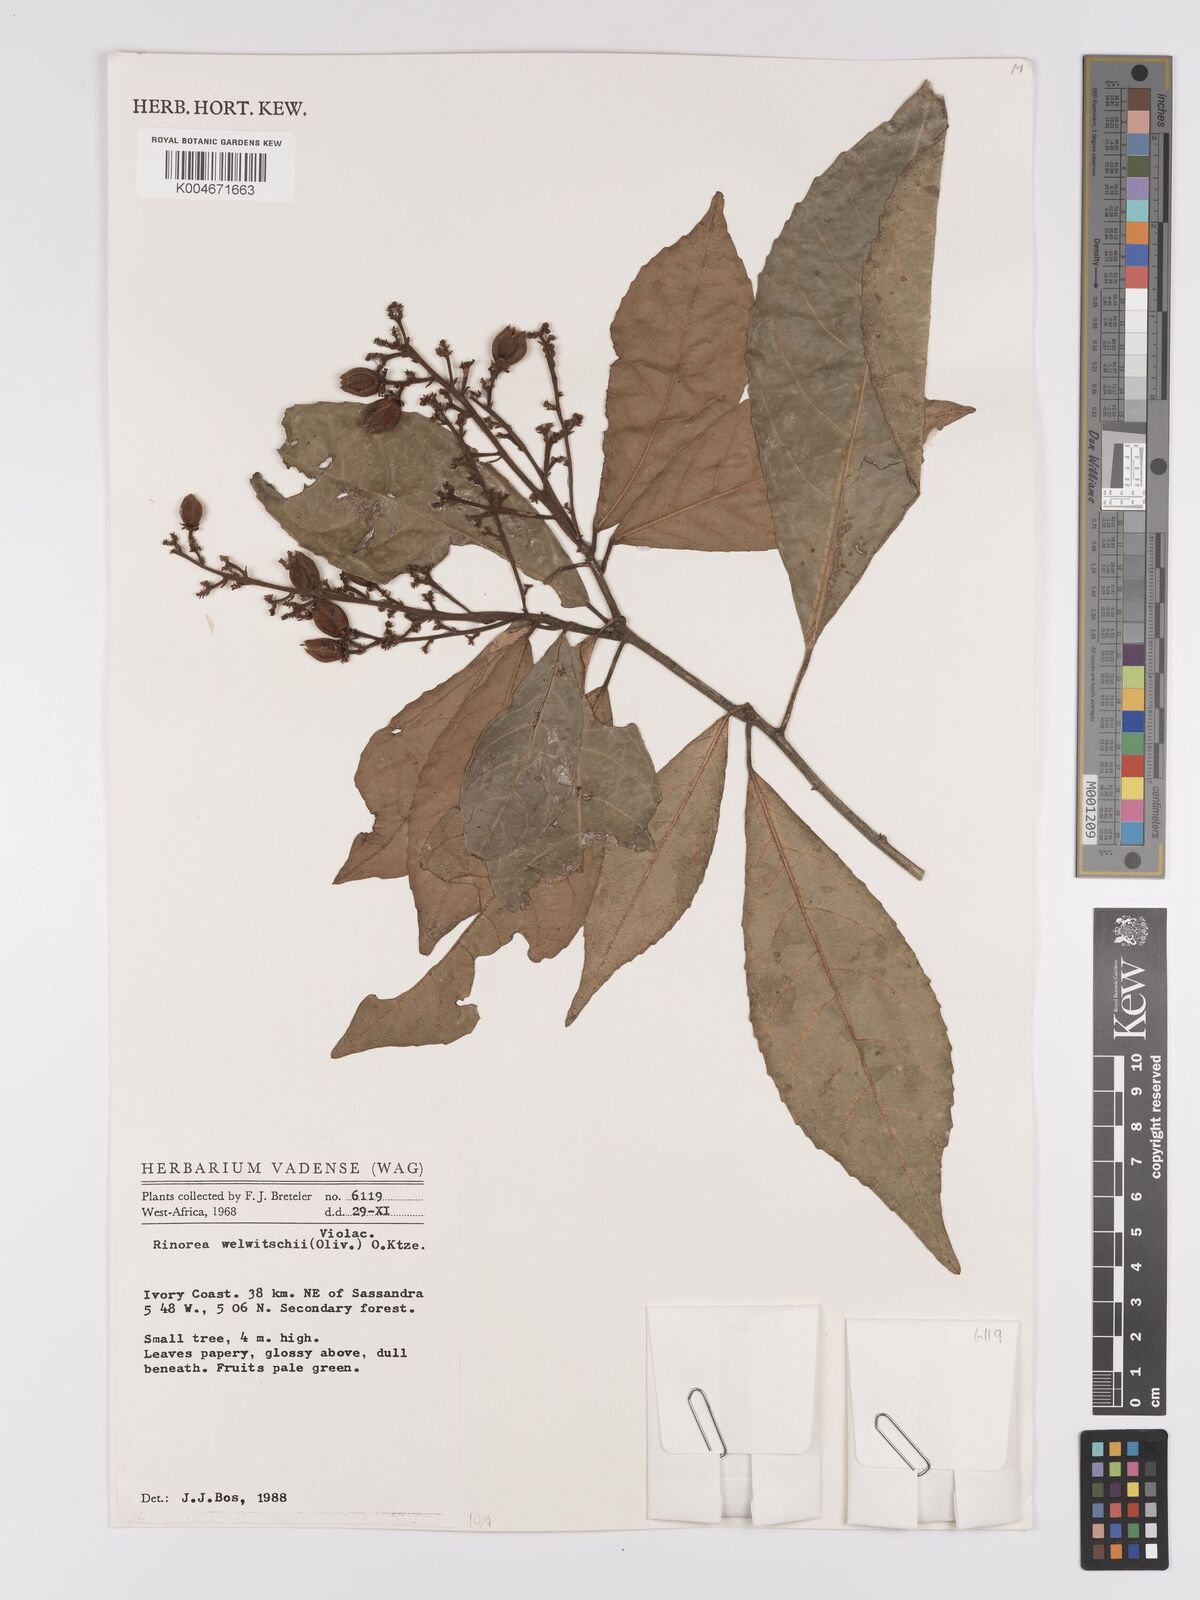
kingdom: Plantae
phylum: Tracheophyta
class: Magnoliopsida
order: Malpighiales
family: Violaceae
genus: Rinorea
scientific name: Rinorea welwitschii
